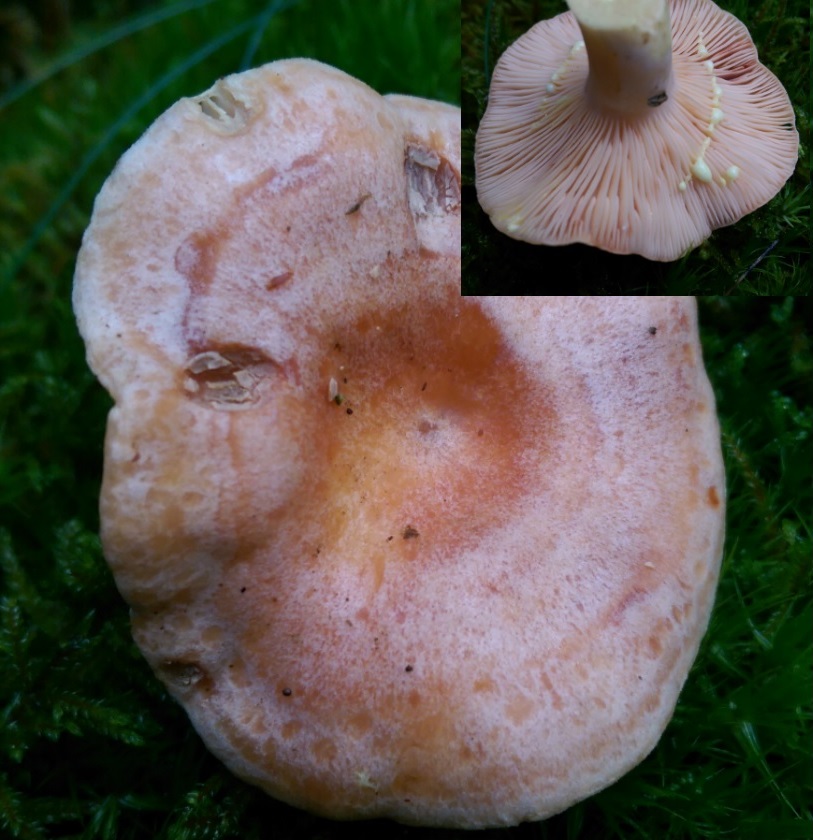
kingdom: Fungi
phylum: Basidiomycota
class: Agaricomycetes
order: Russulales
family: Russulaceae
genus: Lactarius
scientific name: Lactarius chrysorrheus
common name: svovlmælket mælkehat
